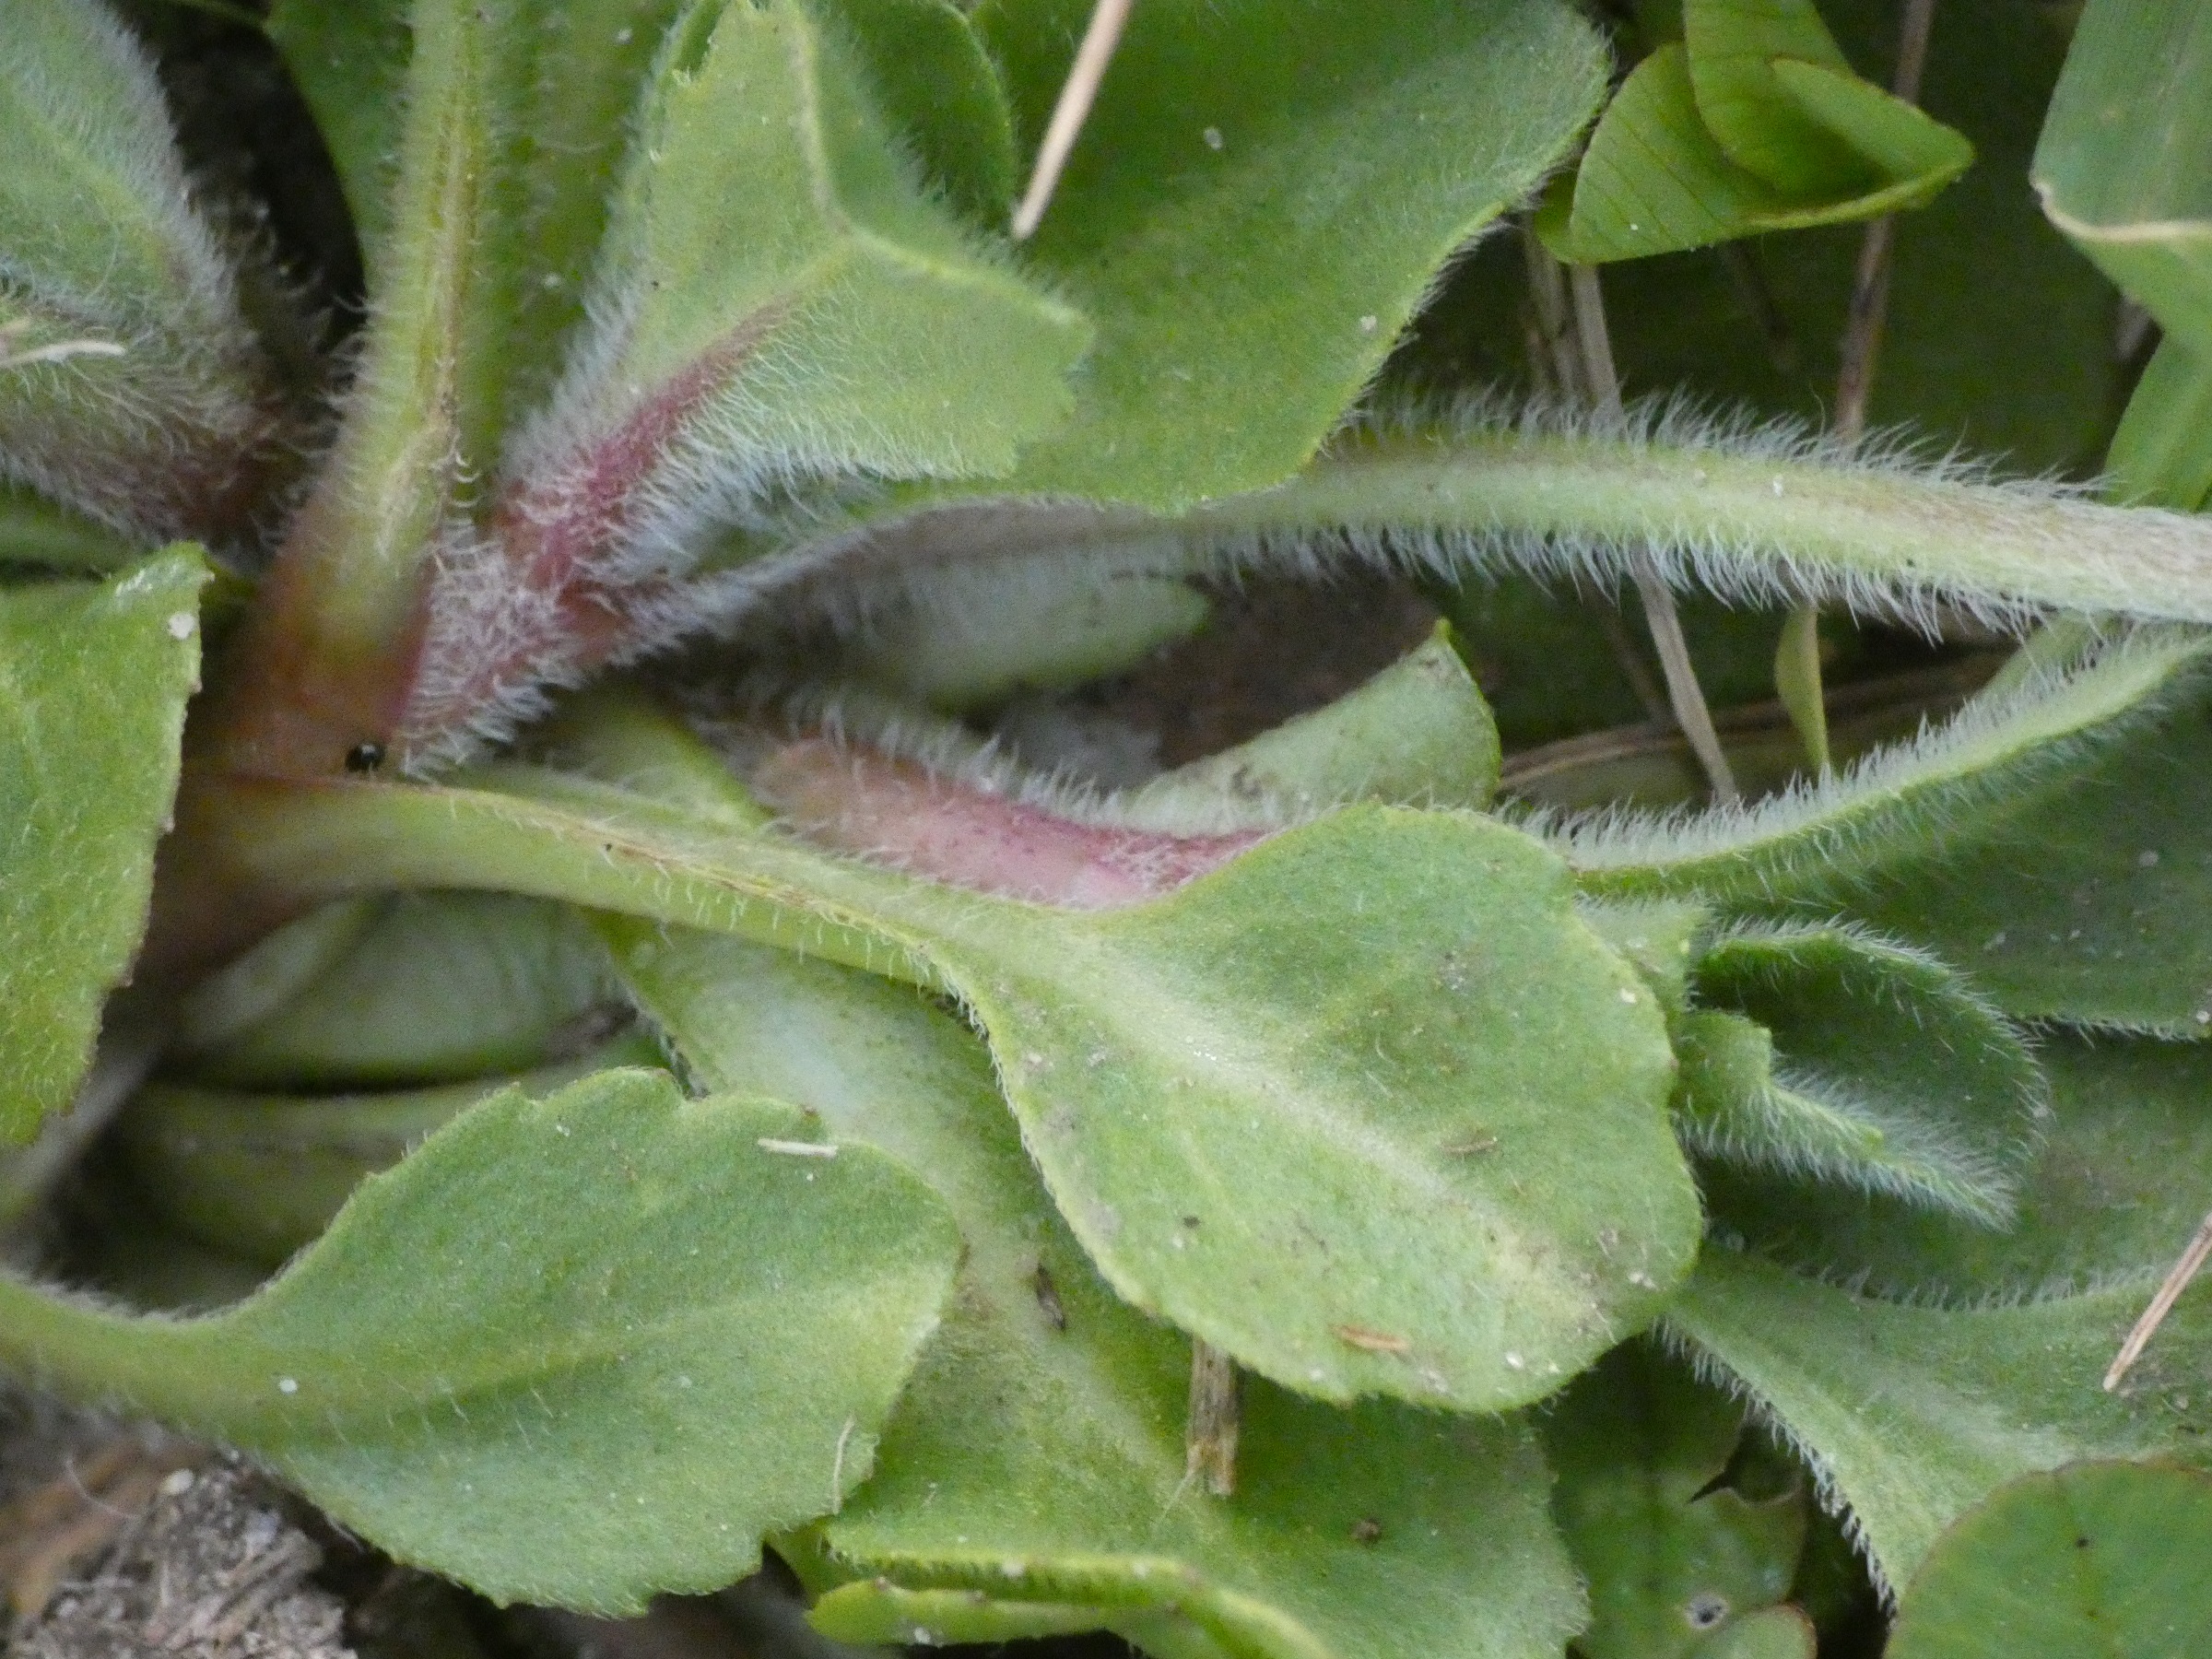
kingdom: Plantae
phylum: Tracheophyta
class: Magnoliopsida
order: Asterales
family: Asteraceae
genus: Bellis
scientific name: Bellis perennis
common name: Tusindfryd
